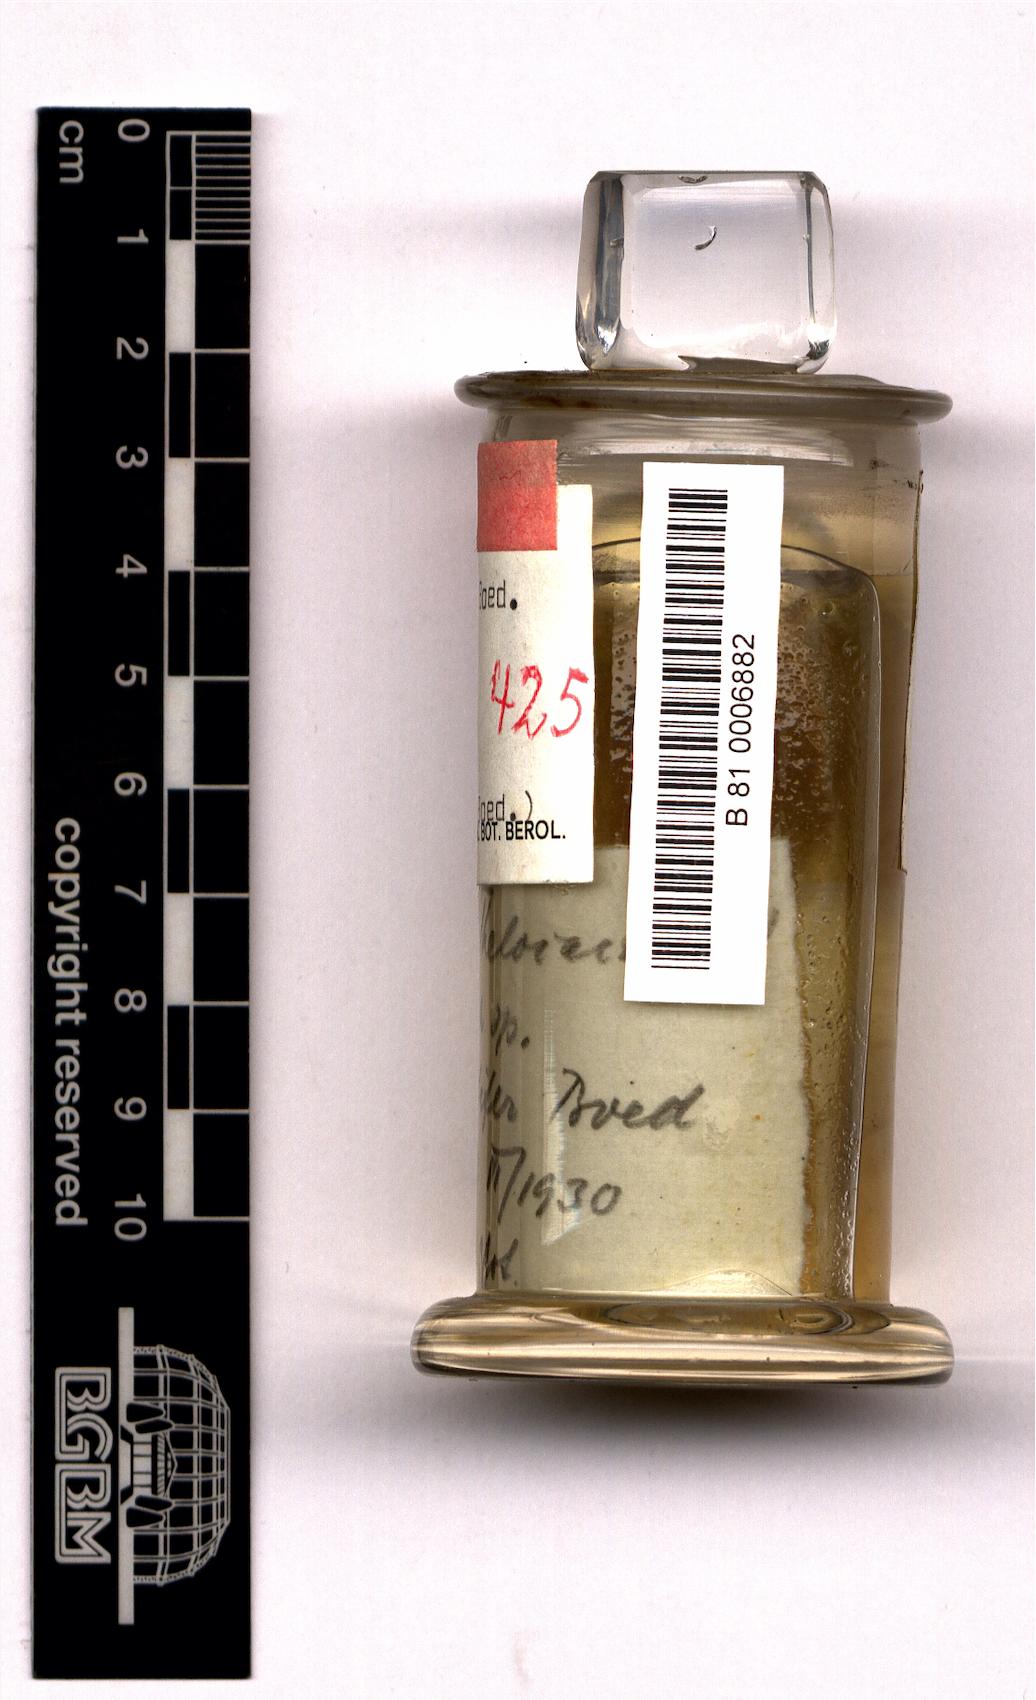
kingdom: Plantae
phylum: Tracheophyta
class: Magnoliopsida
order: Caryophyllales
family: Cactaceae
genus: Thelocactus
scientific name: Thelocactus hastifer
